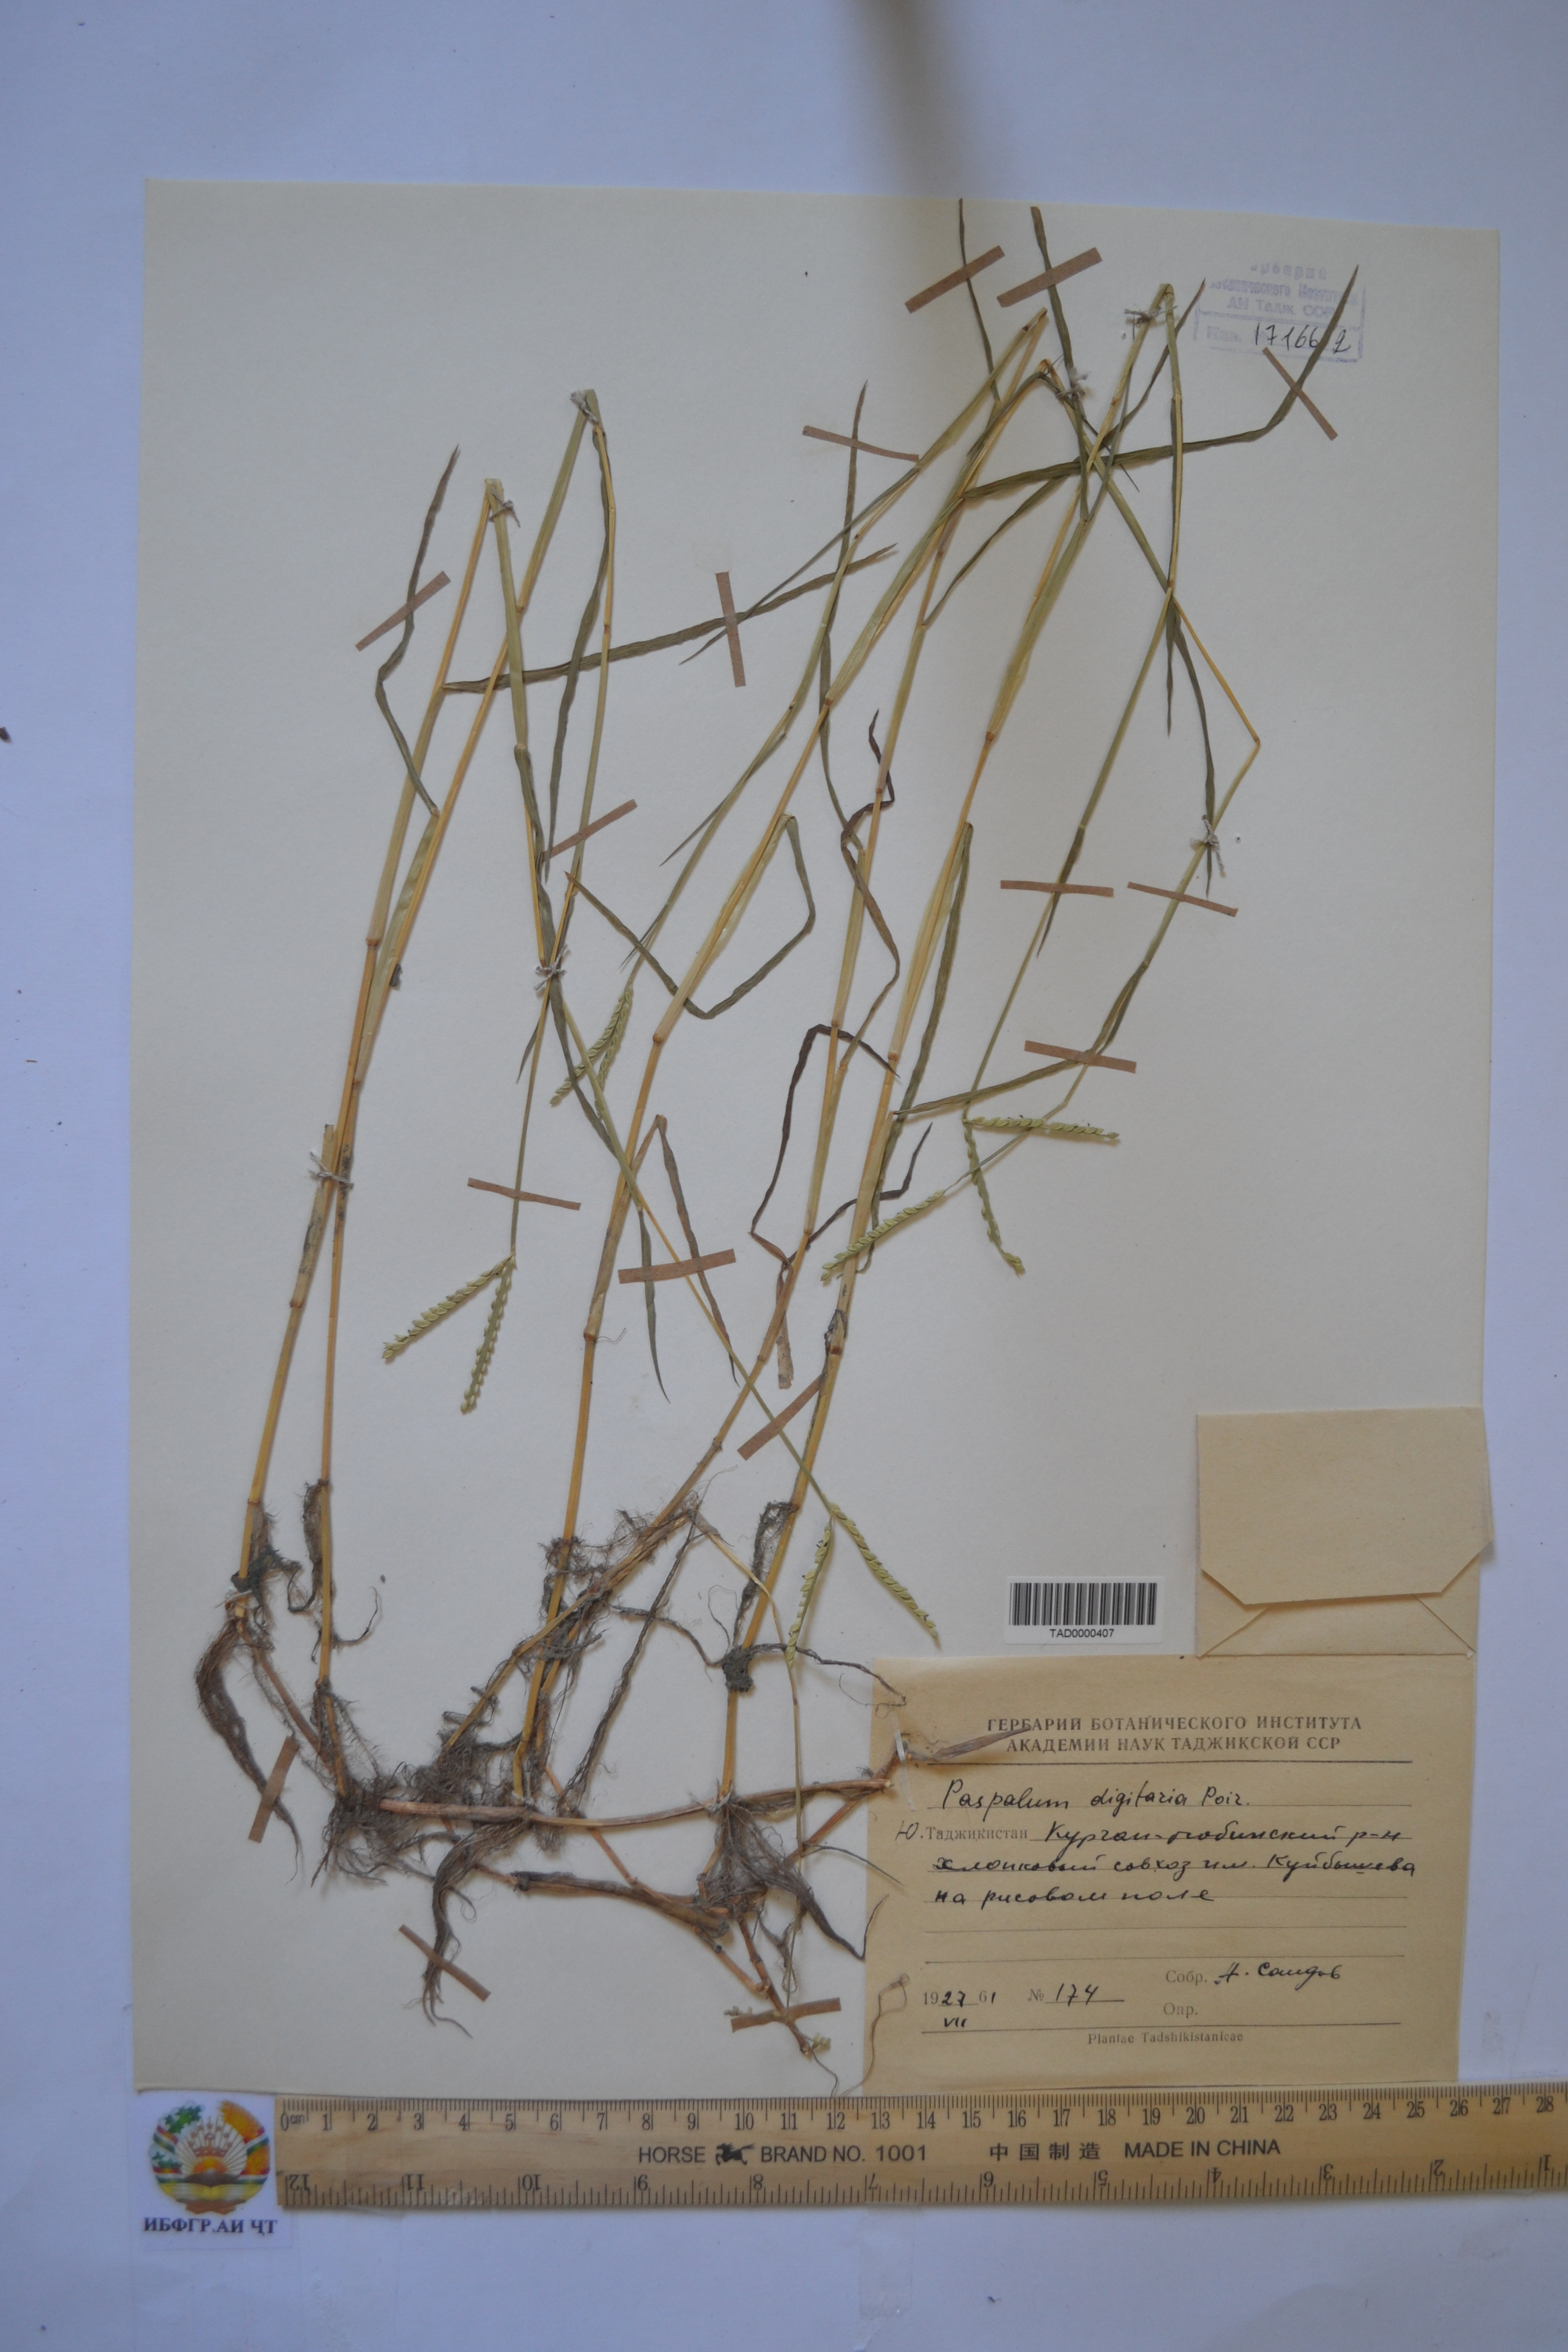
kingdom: Plantae
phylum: Tracheophyta
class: Liliopsida
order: Poales
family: Poaceae
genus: Paspalum
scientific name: Paspalum distichum
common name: Knotgrass
